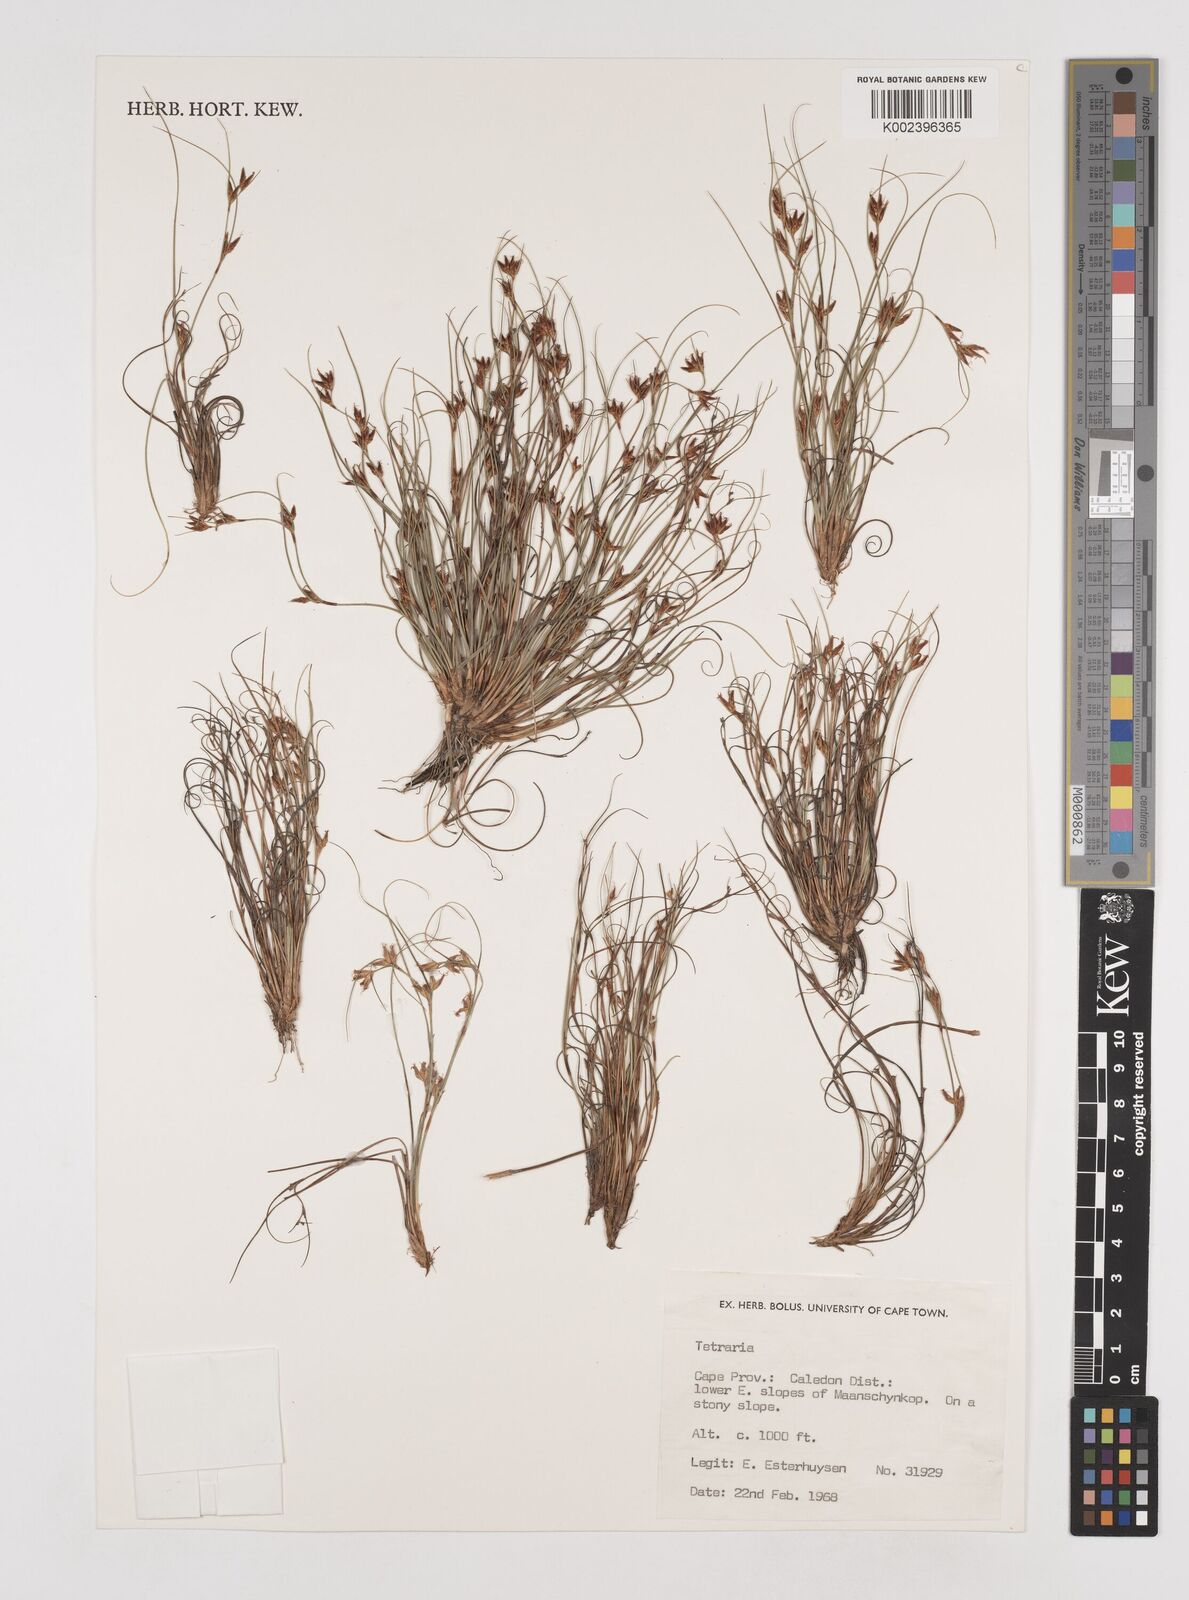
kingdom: Plantae
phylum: Tracheophyta
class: Liliopsida
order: Poales
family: Cyperaceae
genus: Tetraria
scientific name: Tetraria
